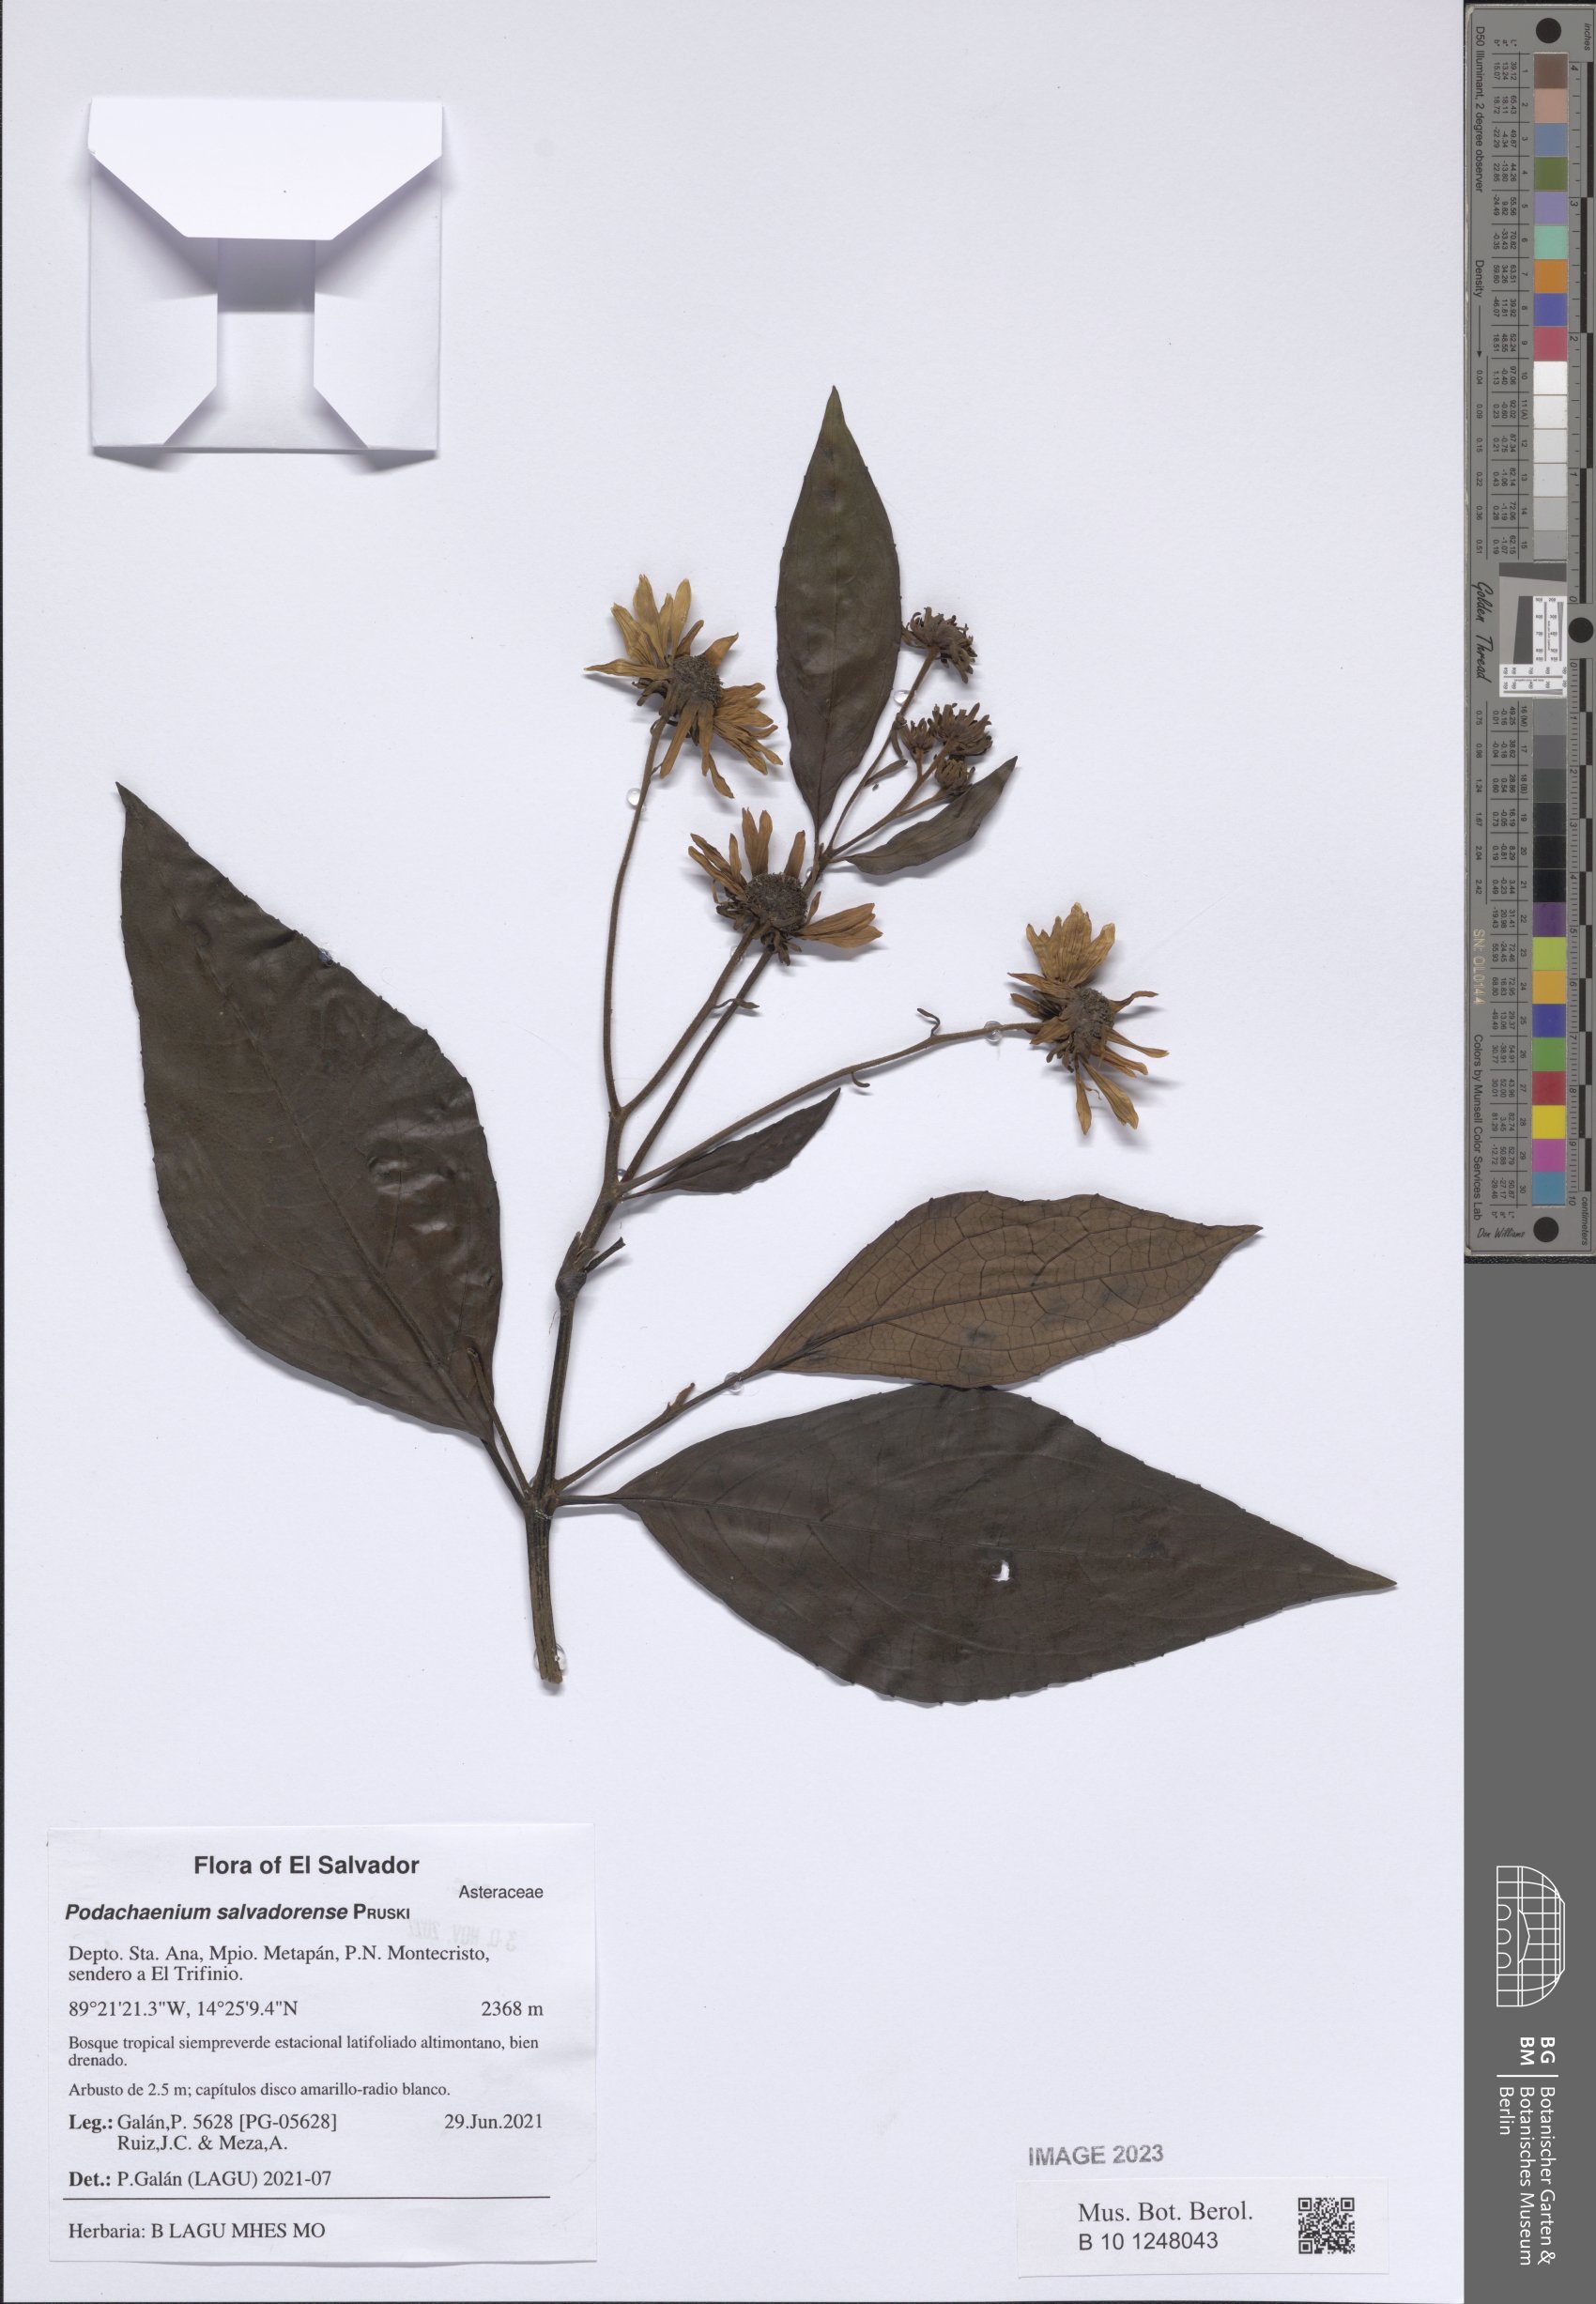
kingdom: Plantae
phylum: Tracheophyta
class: Magnoliopsida
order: Asterales
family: Asteraceae
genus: Podachaenium
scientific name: Podachaenium salvadorense
